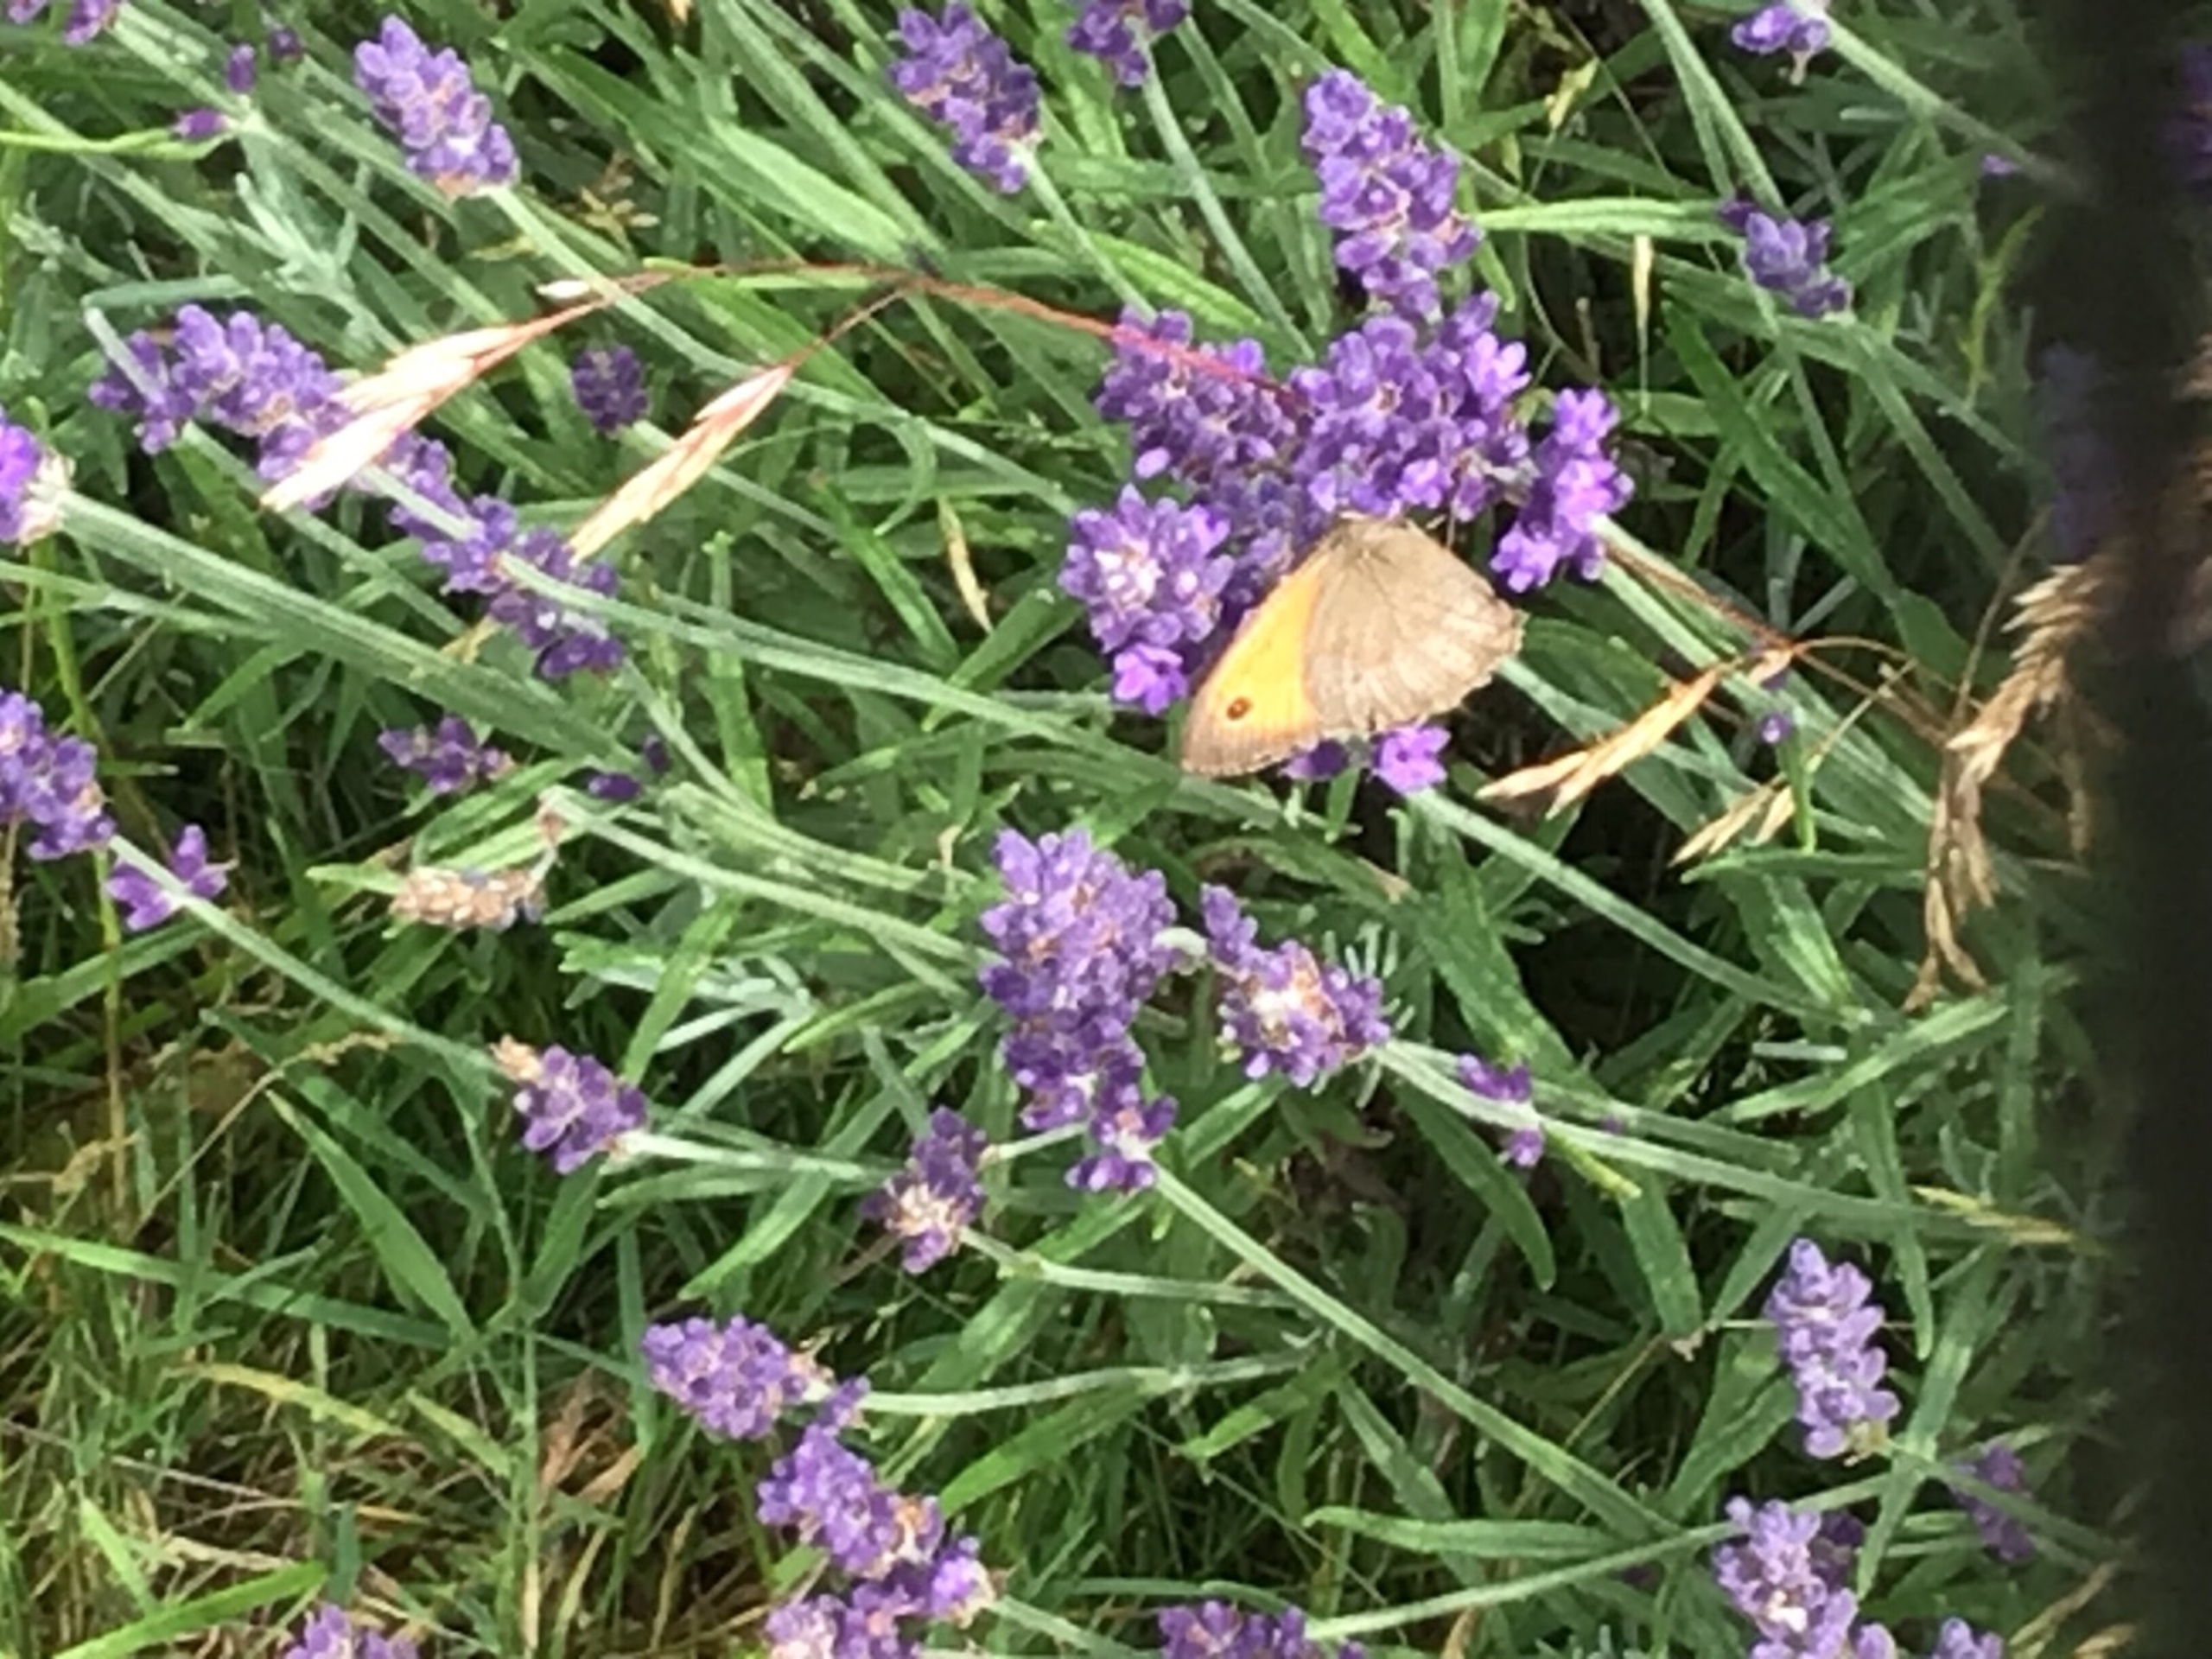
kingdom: Animalia
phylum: Arthropoda
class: Insecta
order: Lepidoptera
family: Nymphalidae
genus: Maniola
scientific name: Maniola jurtina
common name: Græsrandøje
